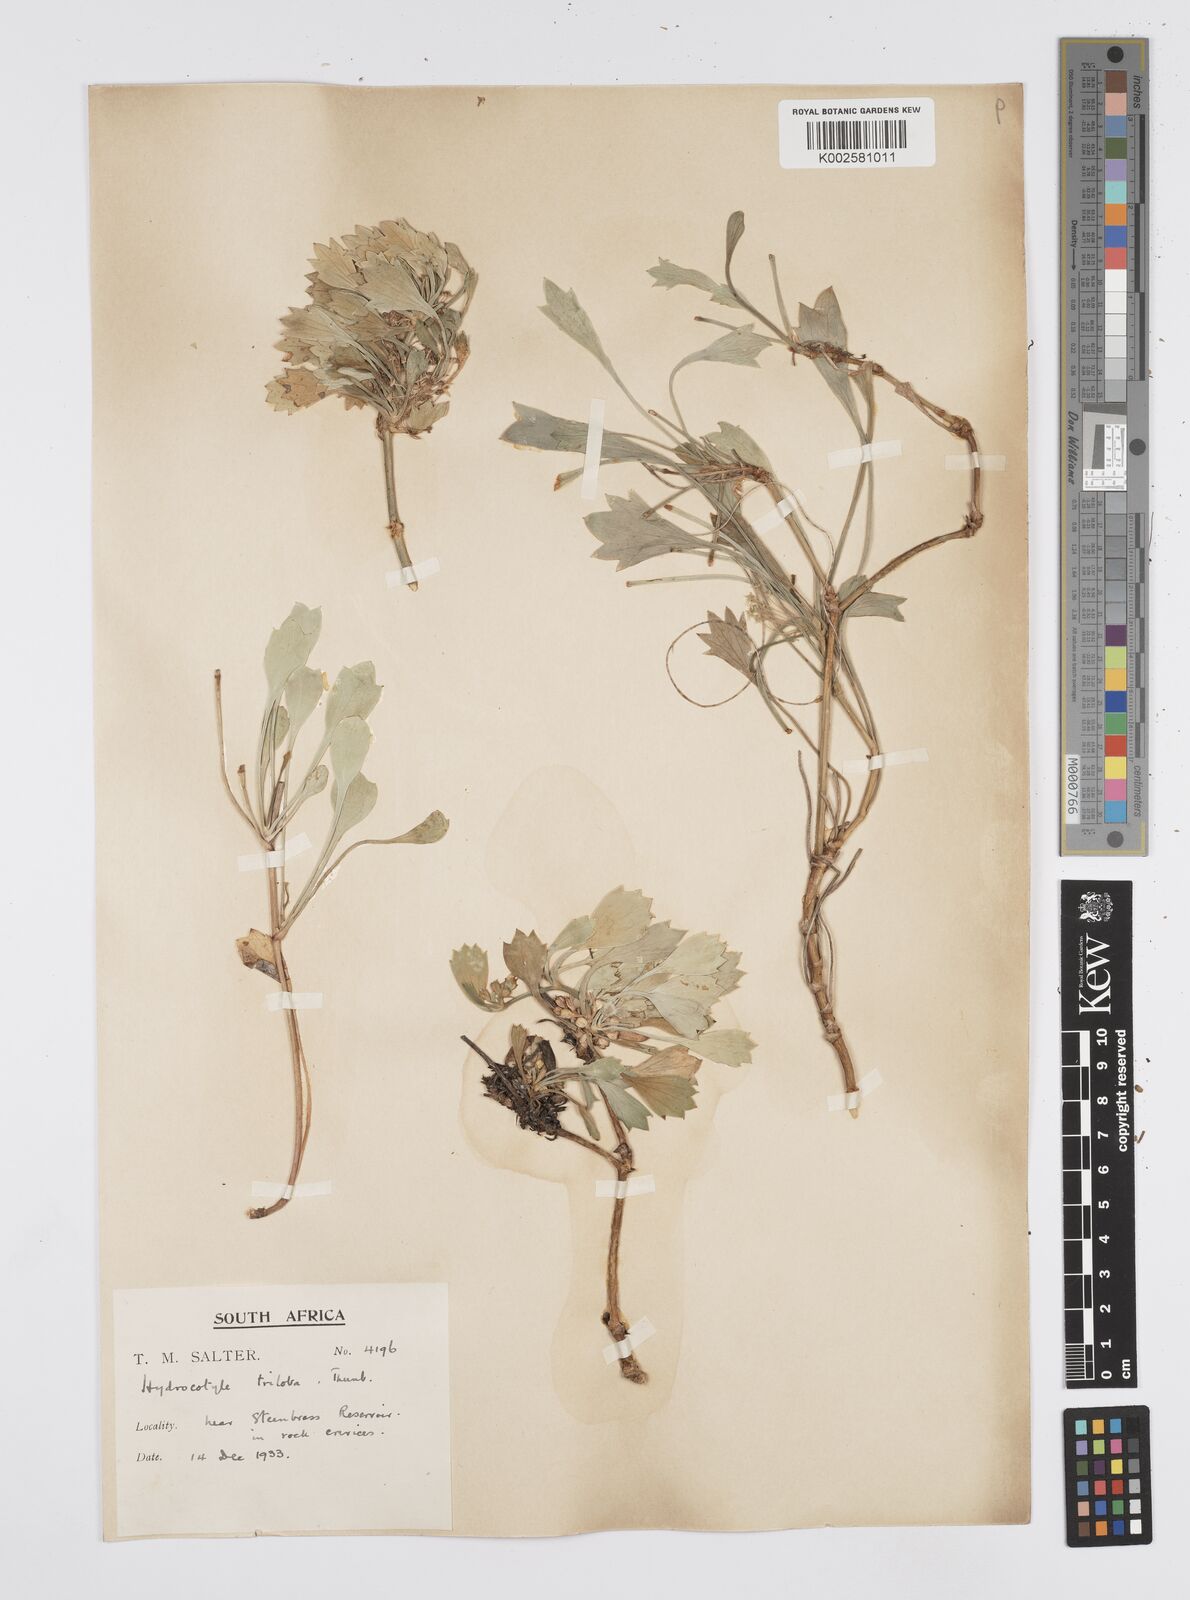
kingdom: Plantae
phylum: Tracheophyta
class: Magnoliopsida
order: Apiales
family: Apiaceae
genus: Centella
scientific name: Centella triloba
